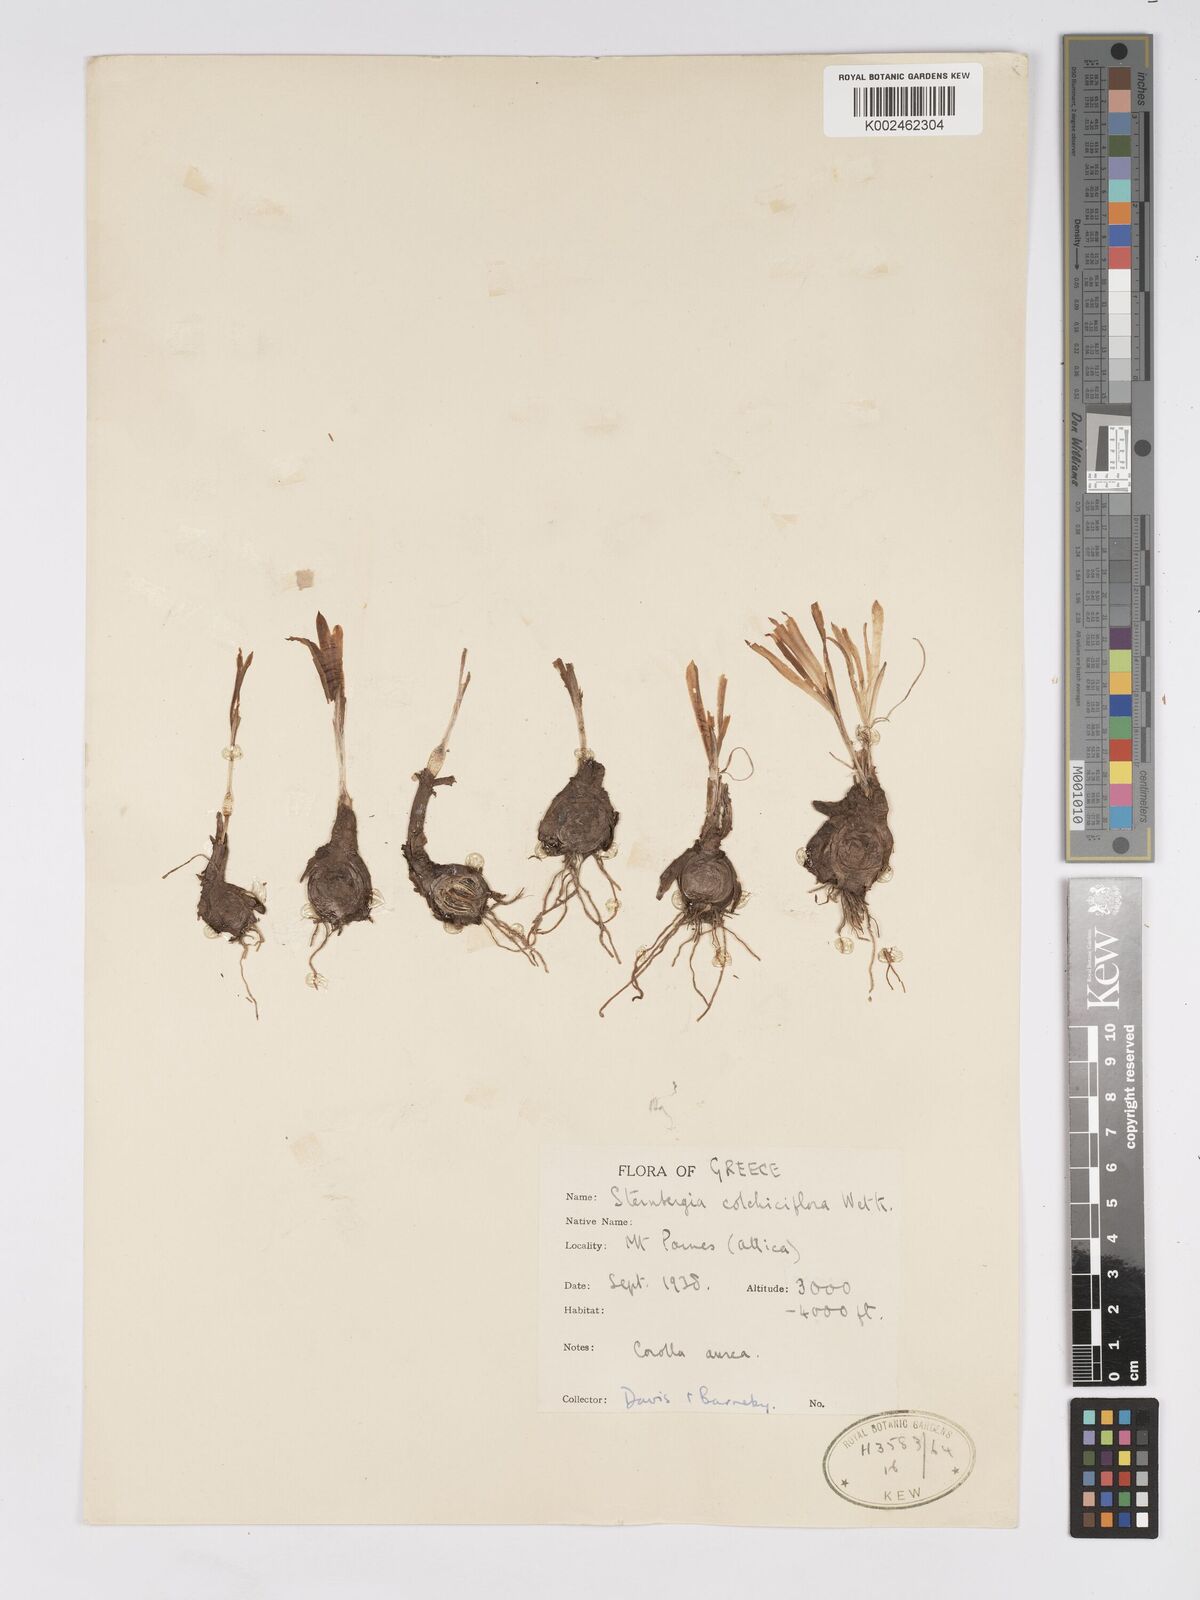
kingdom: Plantae
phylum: Tracheophyta
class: Liliopsida
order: Asparagales
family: Amaryllidaceae
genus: Sternbergia
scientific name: Sternbergia colchiciflora
